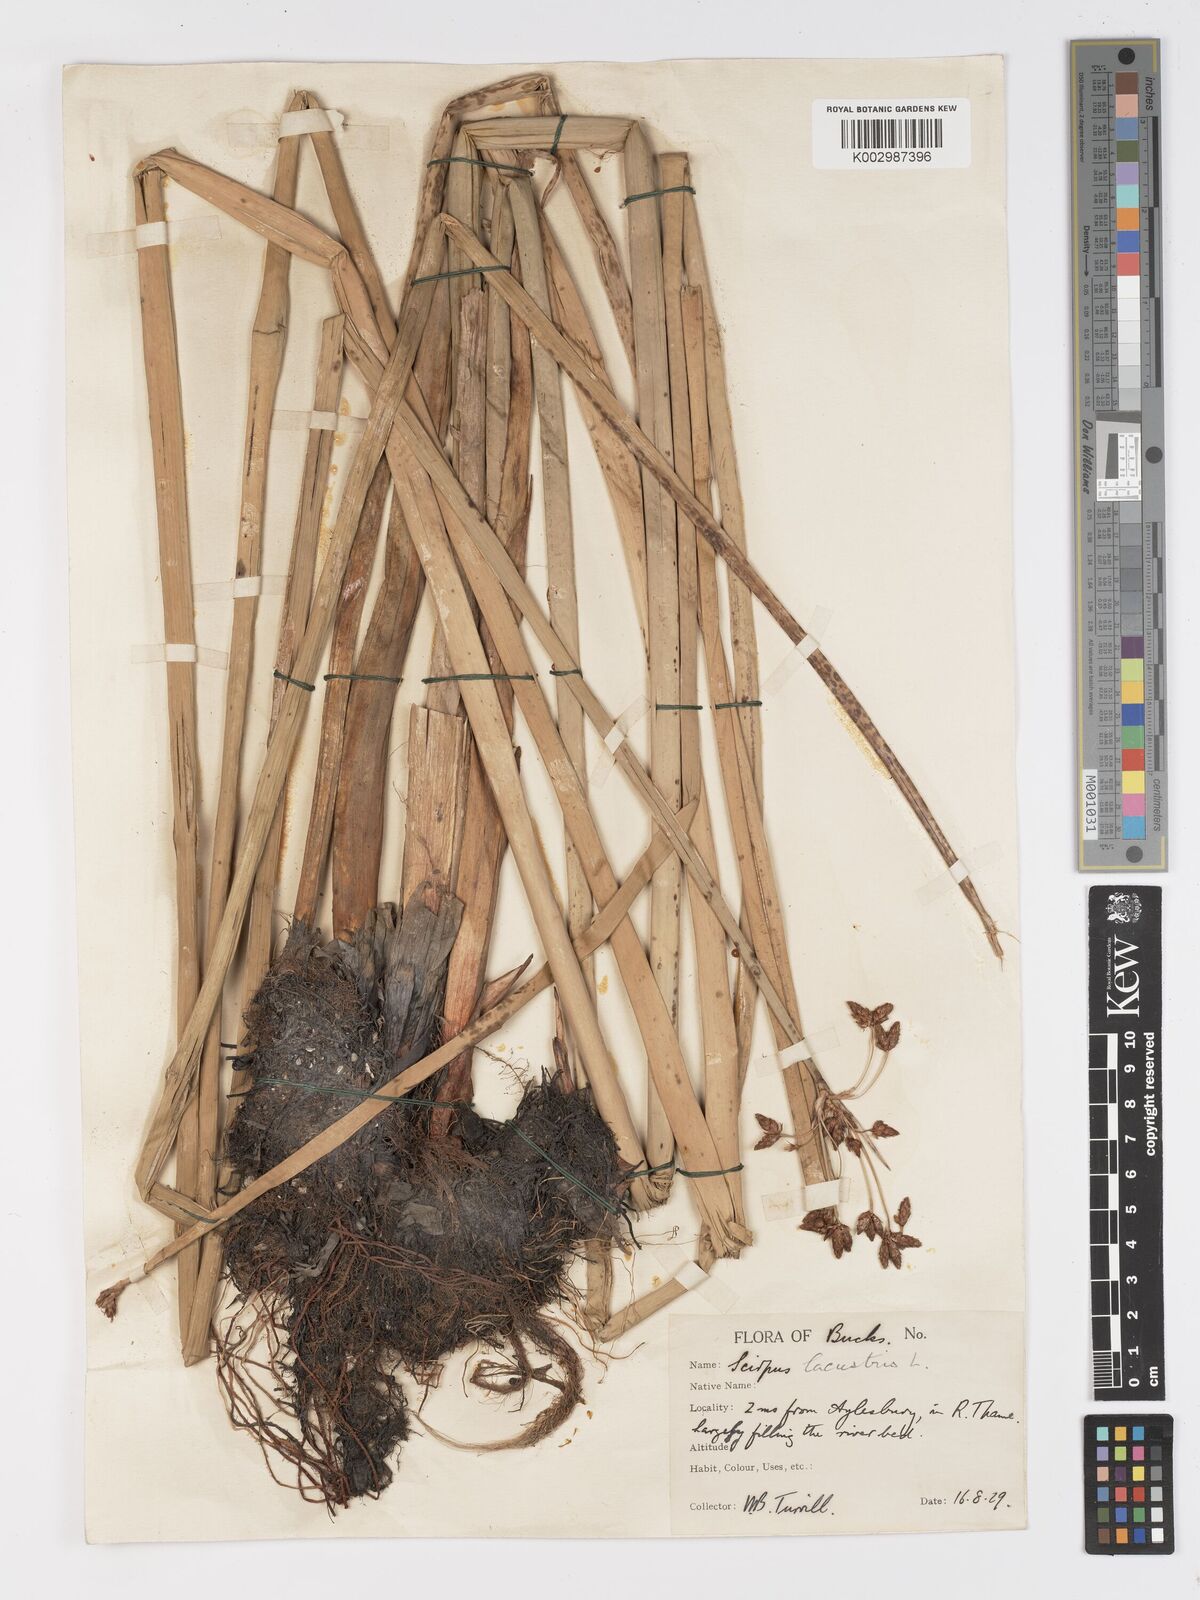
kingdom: Plantae
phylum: Tracheophyta
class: Liliopsida
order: Poales
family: Cyperaceae
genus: Schoenoplectus
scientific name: Schoenoplectus lacustris
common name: Common club-rush
